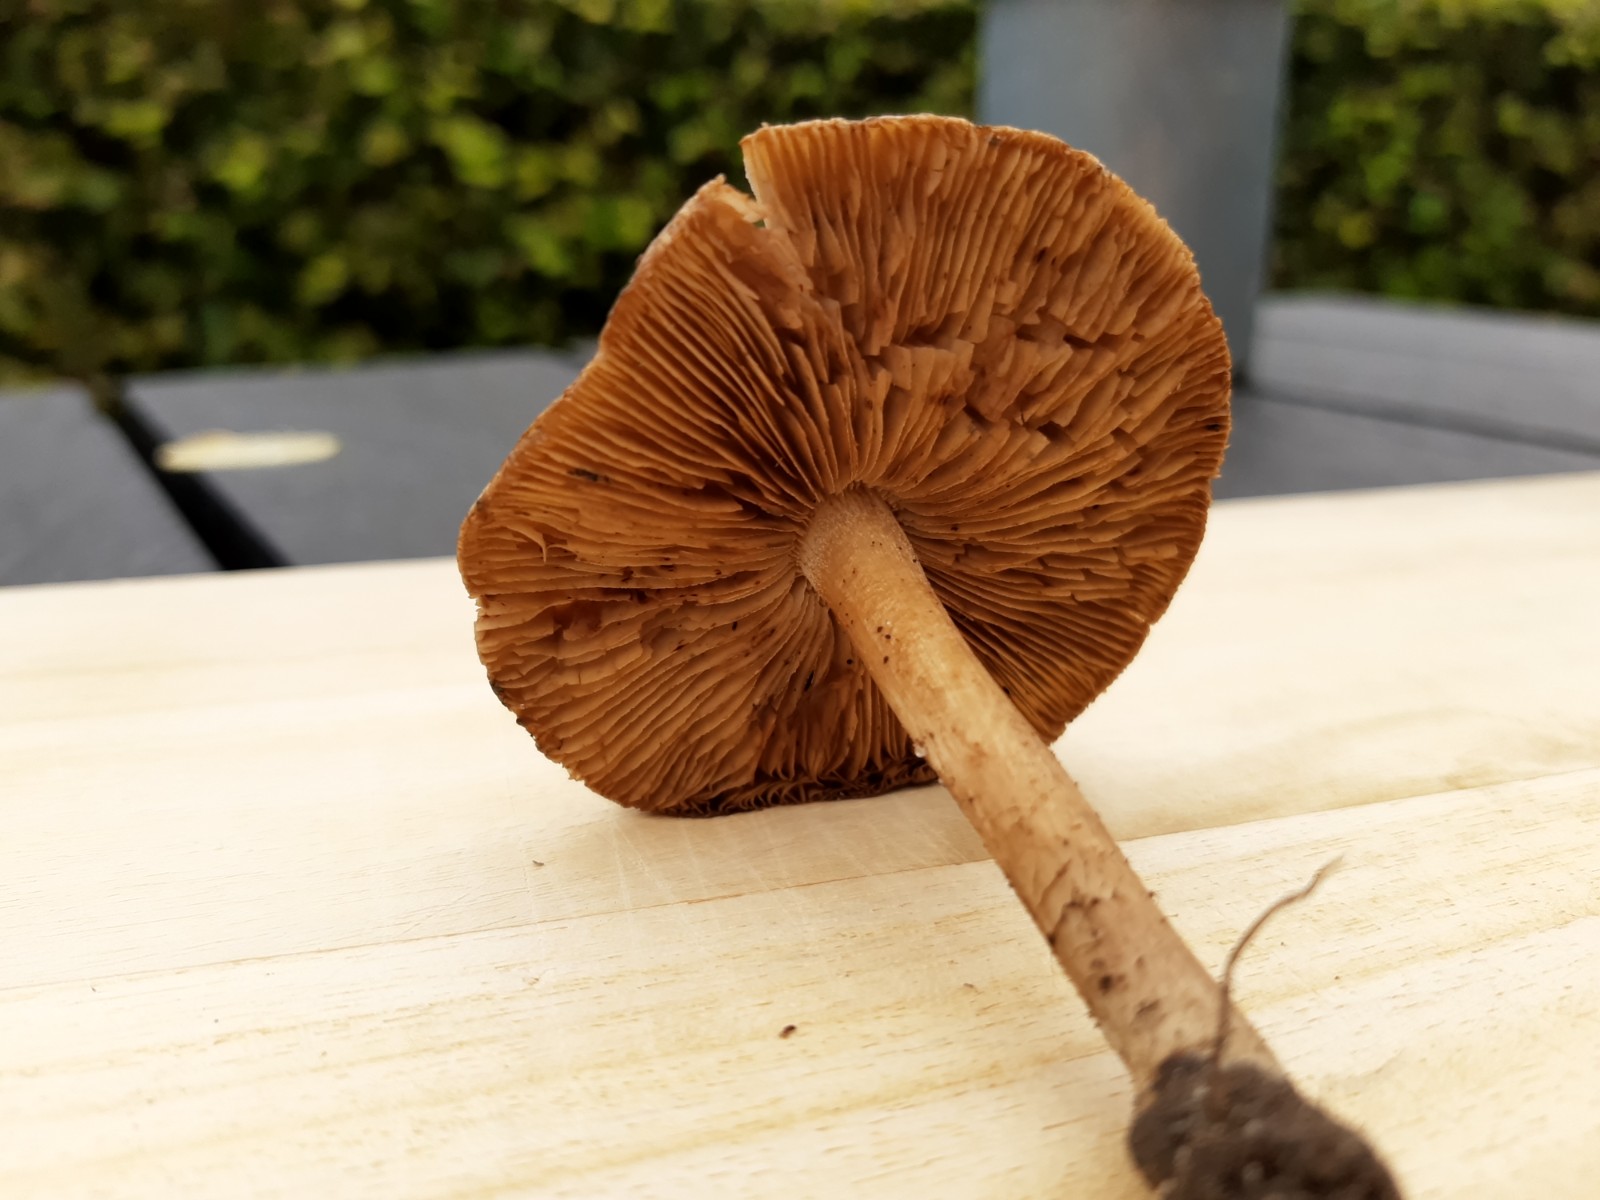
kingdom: Fungi
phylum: Basidiomycota
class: Agaricomycetes
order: Agaricales
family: Inocybaceae
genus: Inocybe
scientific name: Inocybe corydalina
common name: grønpuklet trævlhat
